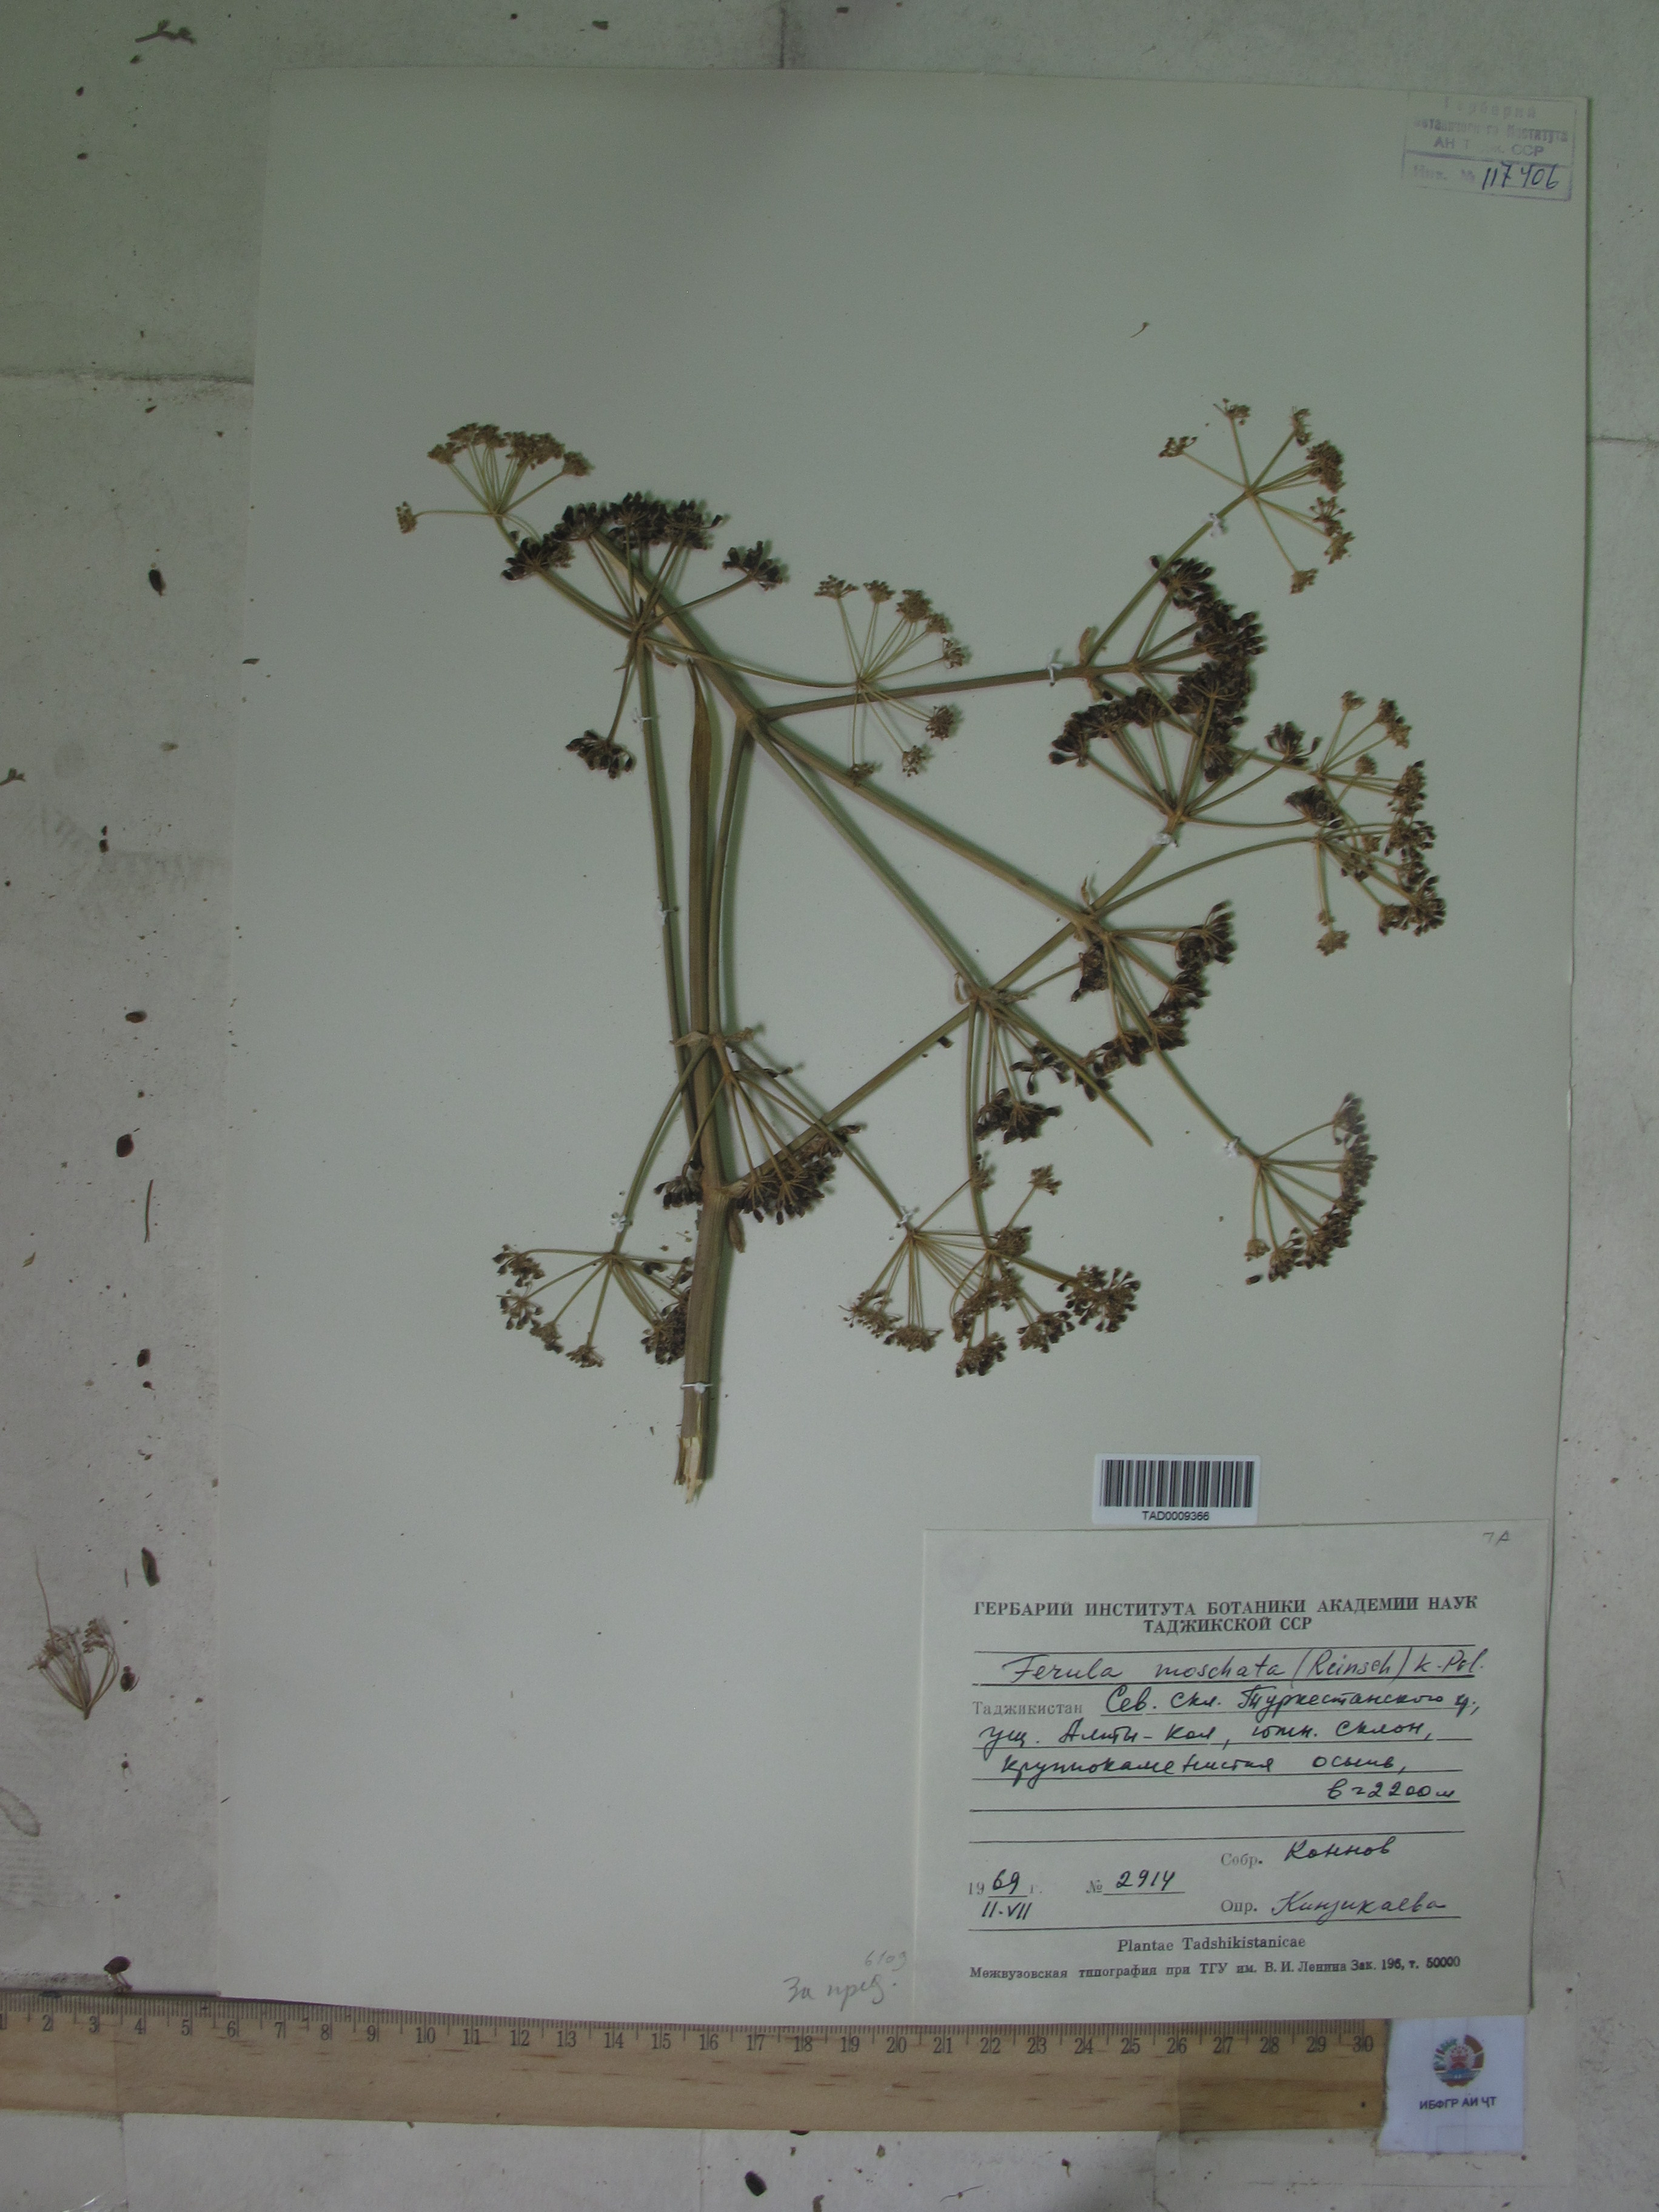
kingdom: Plantae
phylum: Tracheophyta
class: Magnoliopsida
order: Apiales
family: Apiaceae
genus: Ferula
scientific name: Ferula moschata
